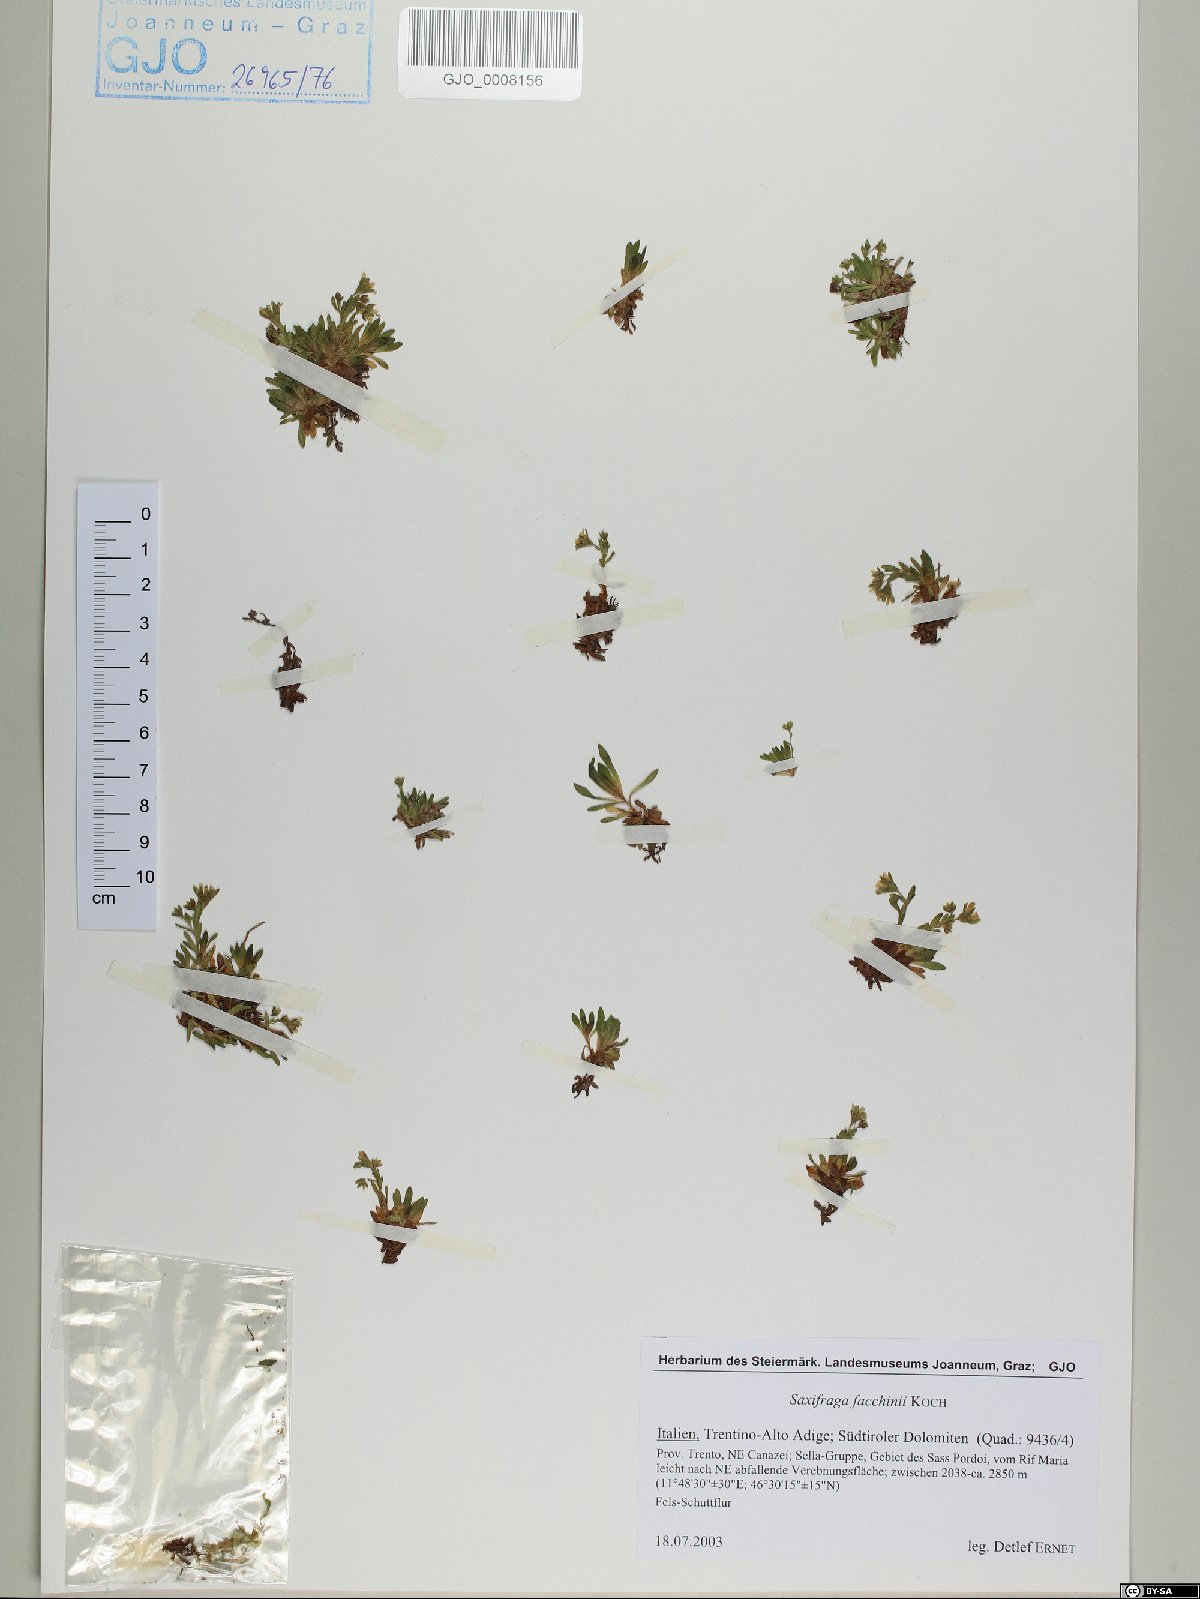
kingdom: Plantae
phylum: Tracheophyta
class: Magnoliopsida
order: Saxifragales
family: Saxifragaceae
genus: Saxifraga
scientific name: Saxifraga facchinii
